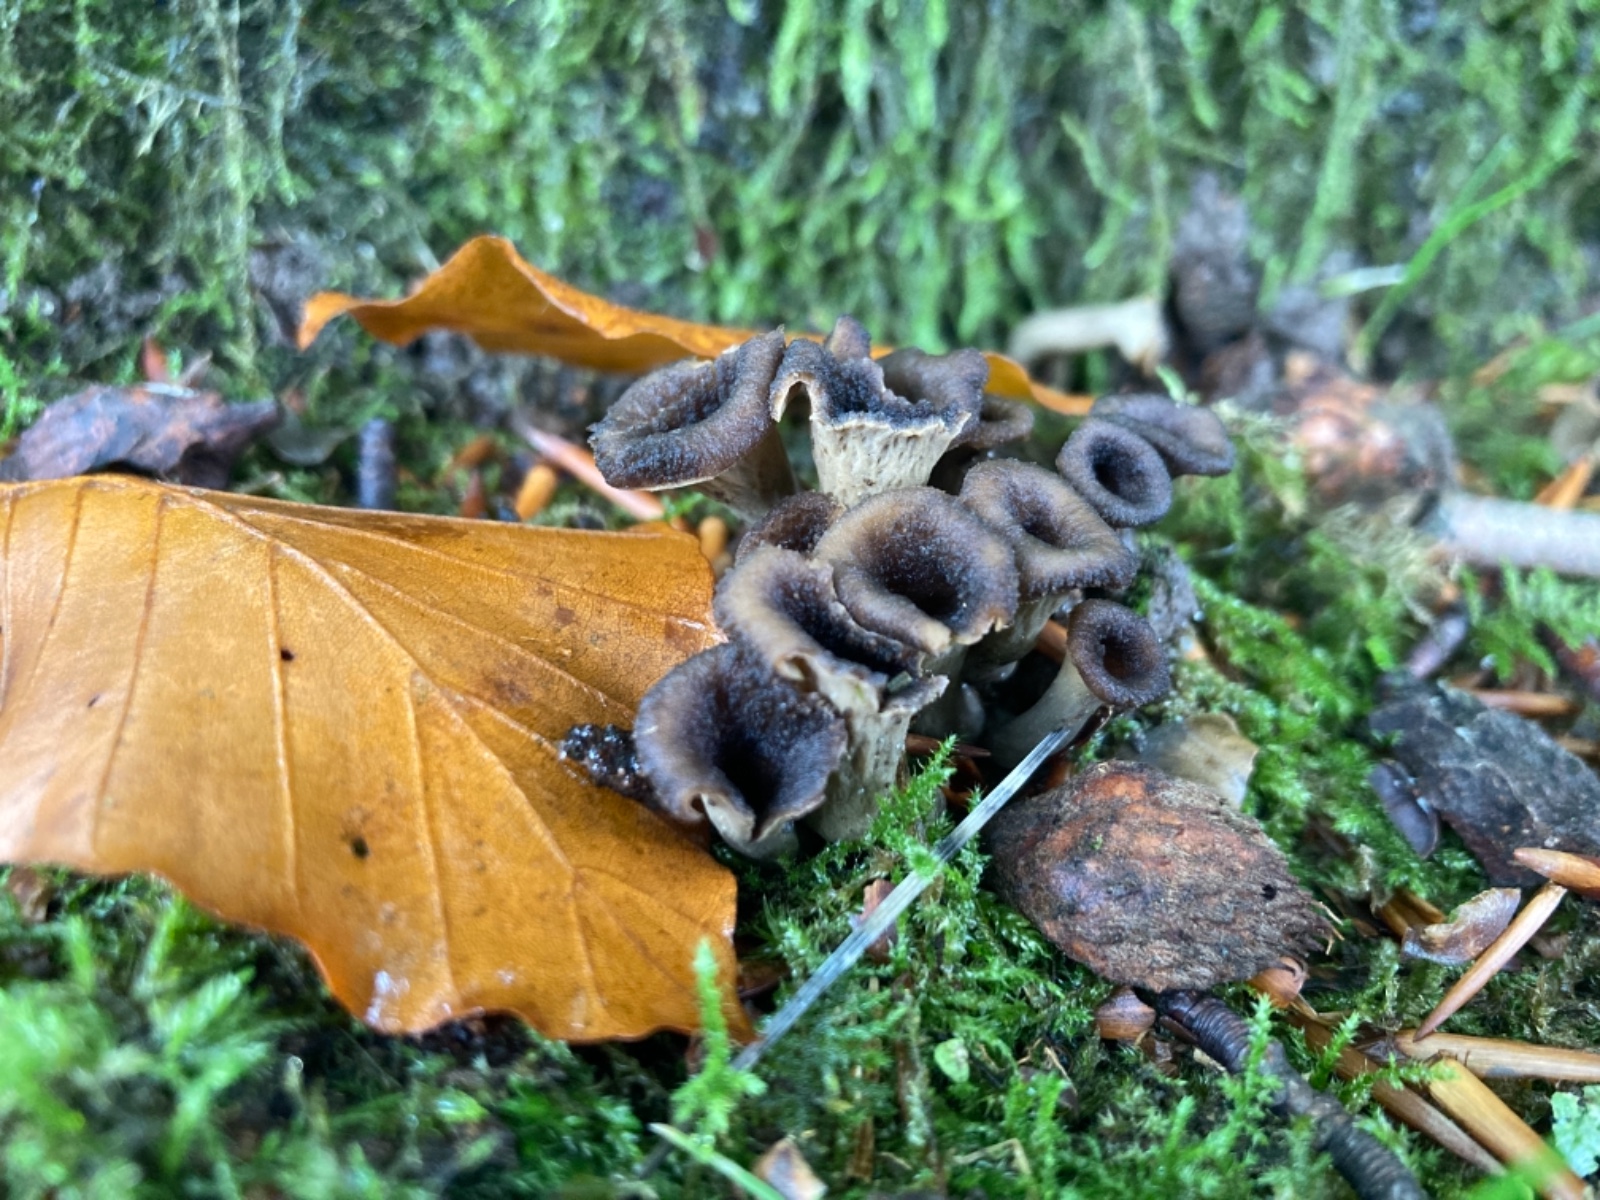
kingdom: Fungi
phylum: Basidiomycota
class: Agaricomycetes
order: Cantharellales
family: Hydnaceae
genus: Craterellus
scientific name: Craterellus cornucopioides
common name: trompetsvamp
